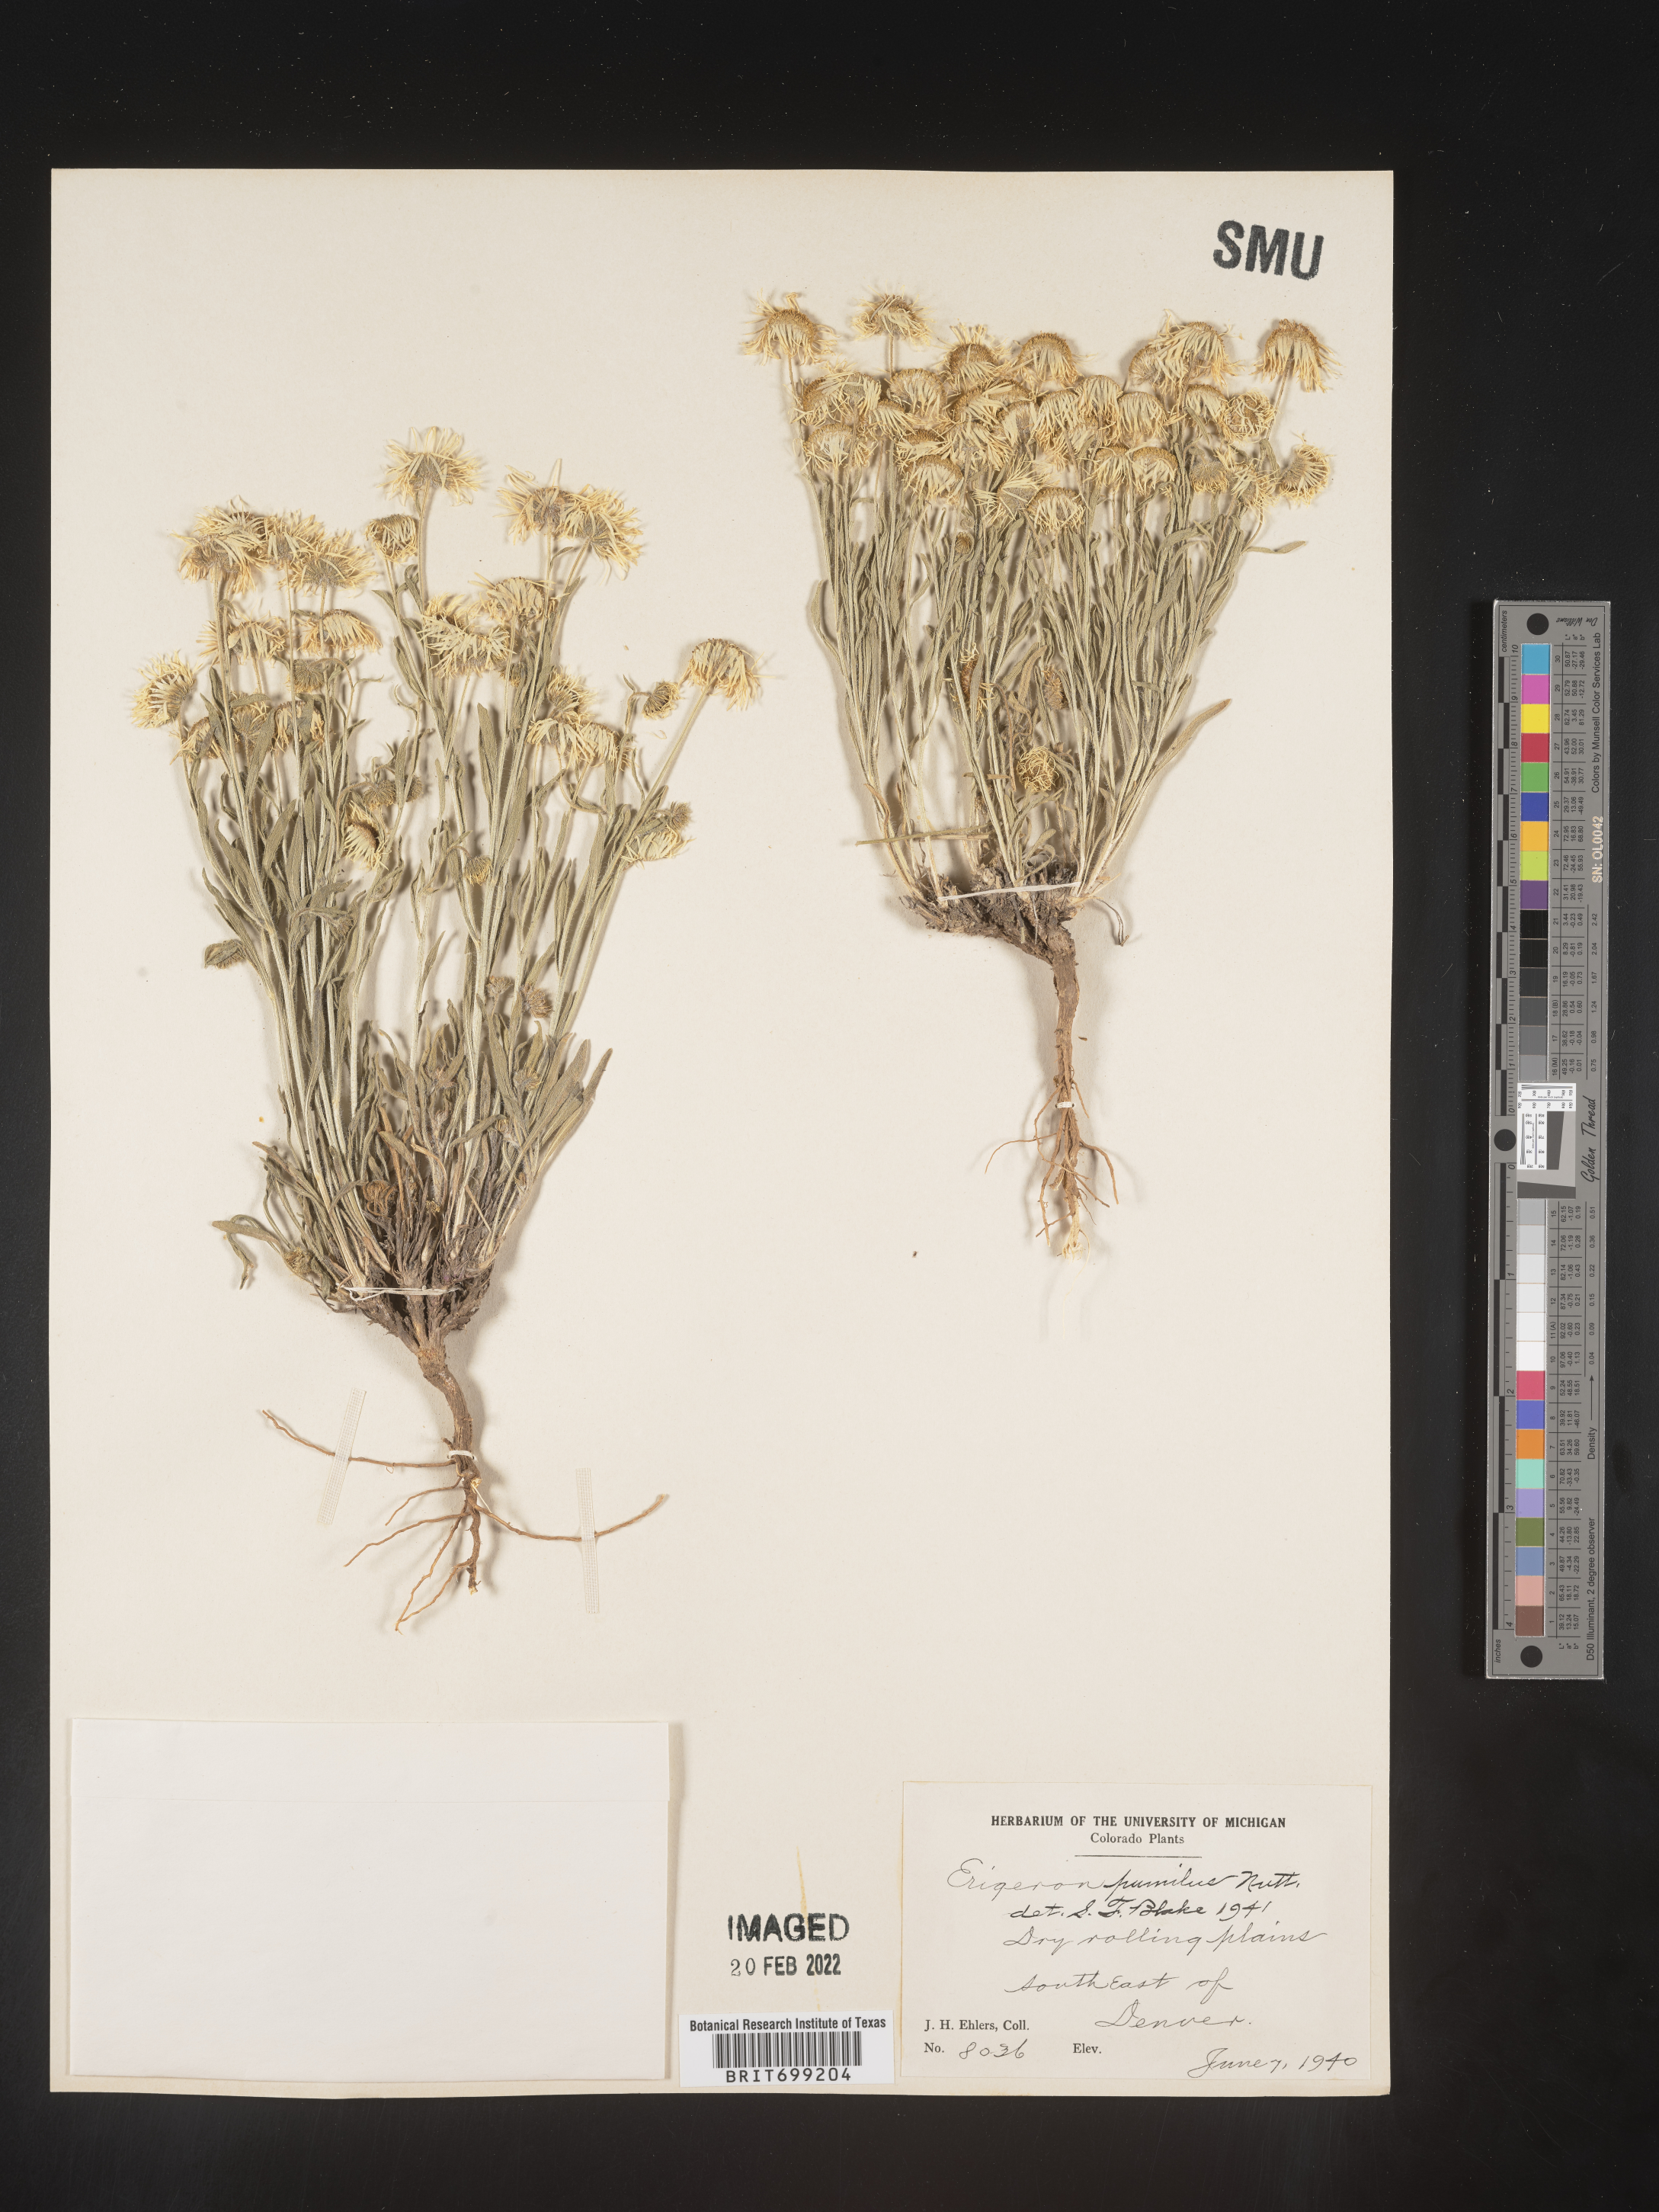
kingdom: Plantae
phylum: Tracheophyta
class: Magnoliopsida
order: Asterales
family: Asteraceae
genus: Erigeron
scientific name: Erigeron pumilus
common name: Shaggy fleabane
